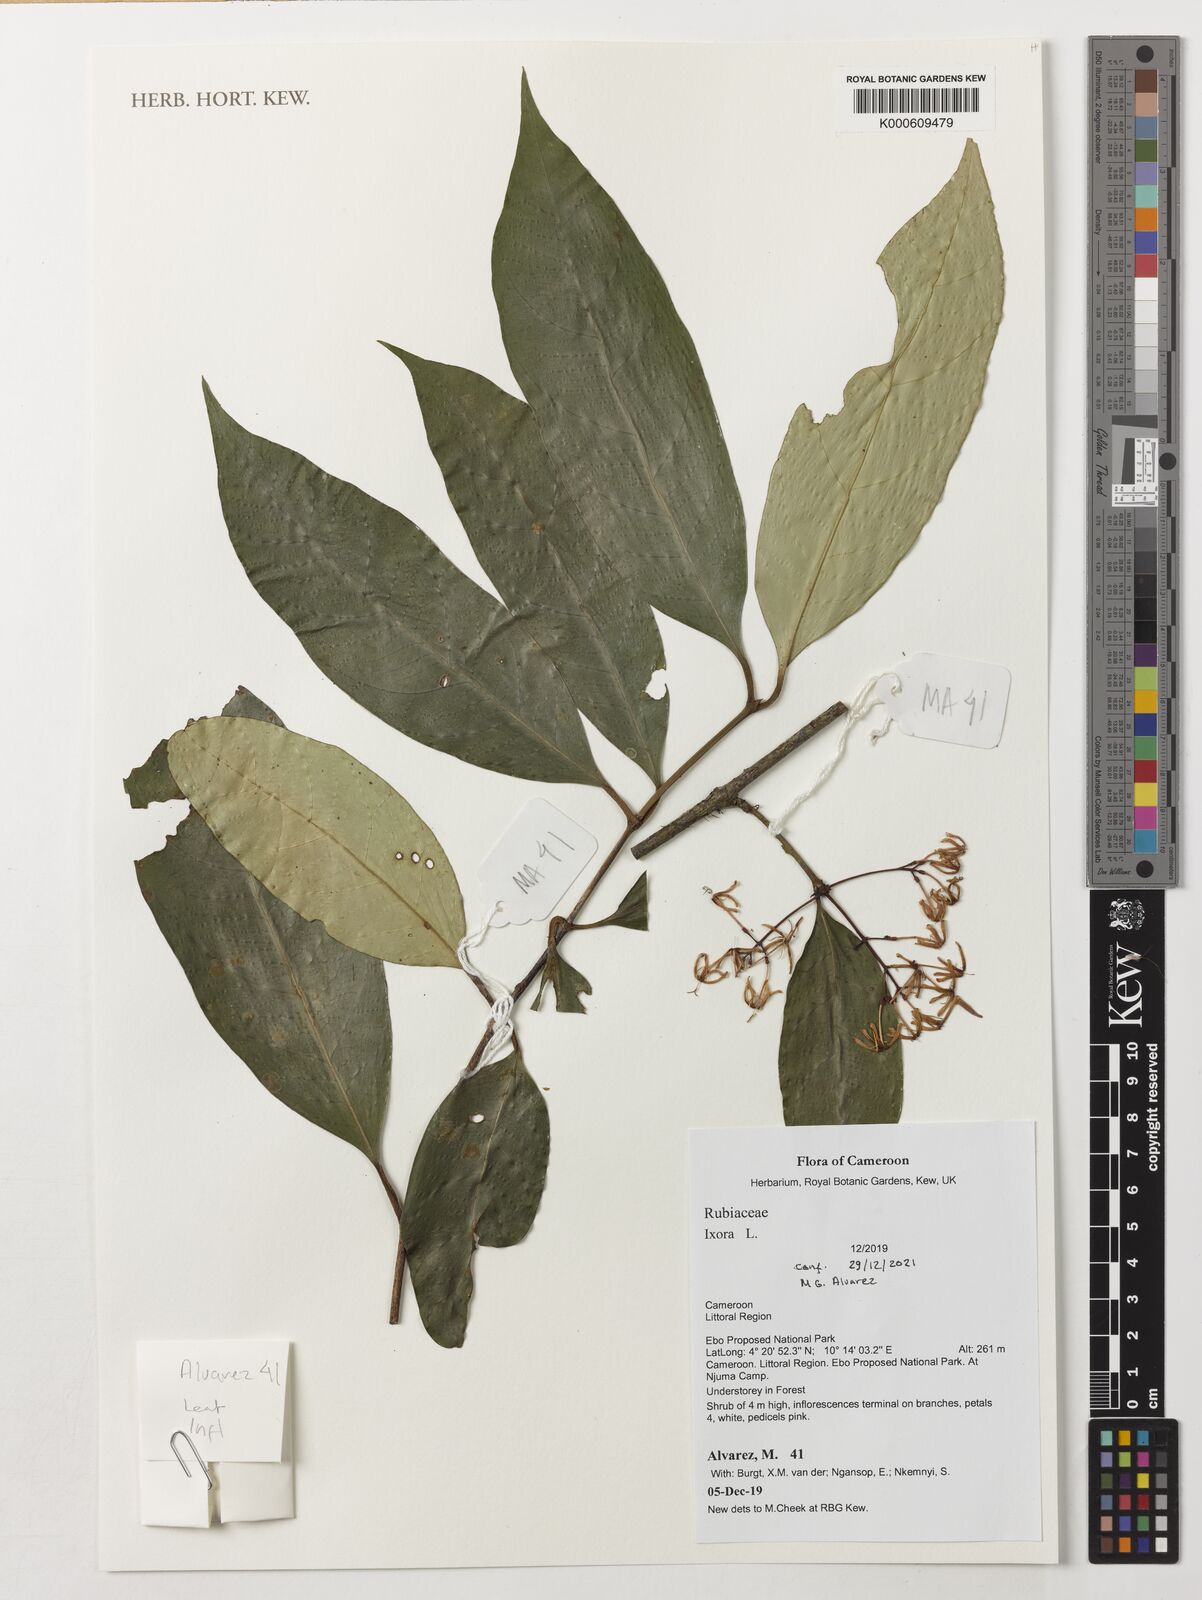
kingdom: Plantae
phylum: Tracheophyta
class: Magnoliopsida
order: Gentianales
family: Rubiaceae
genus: Ixora
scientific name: Ixora
